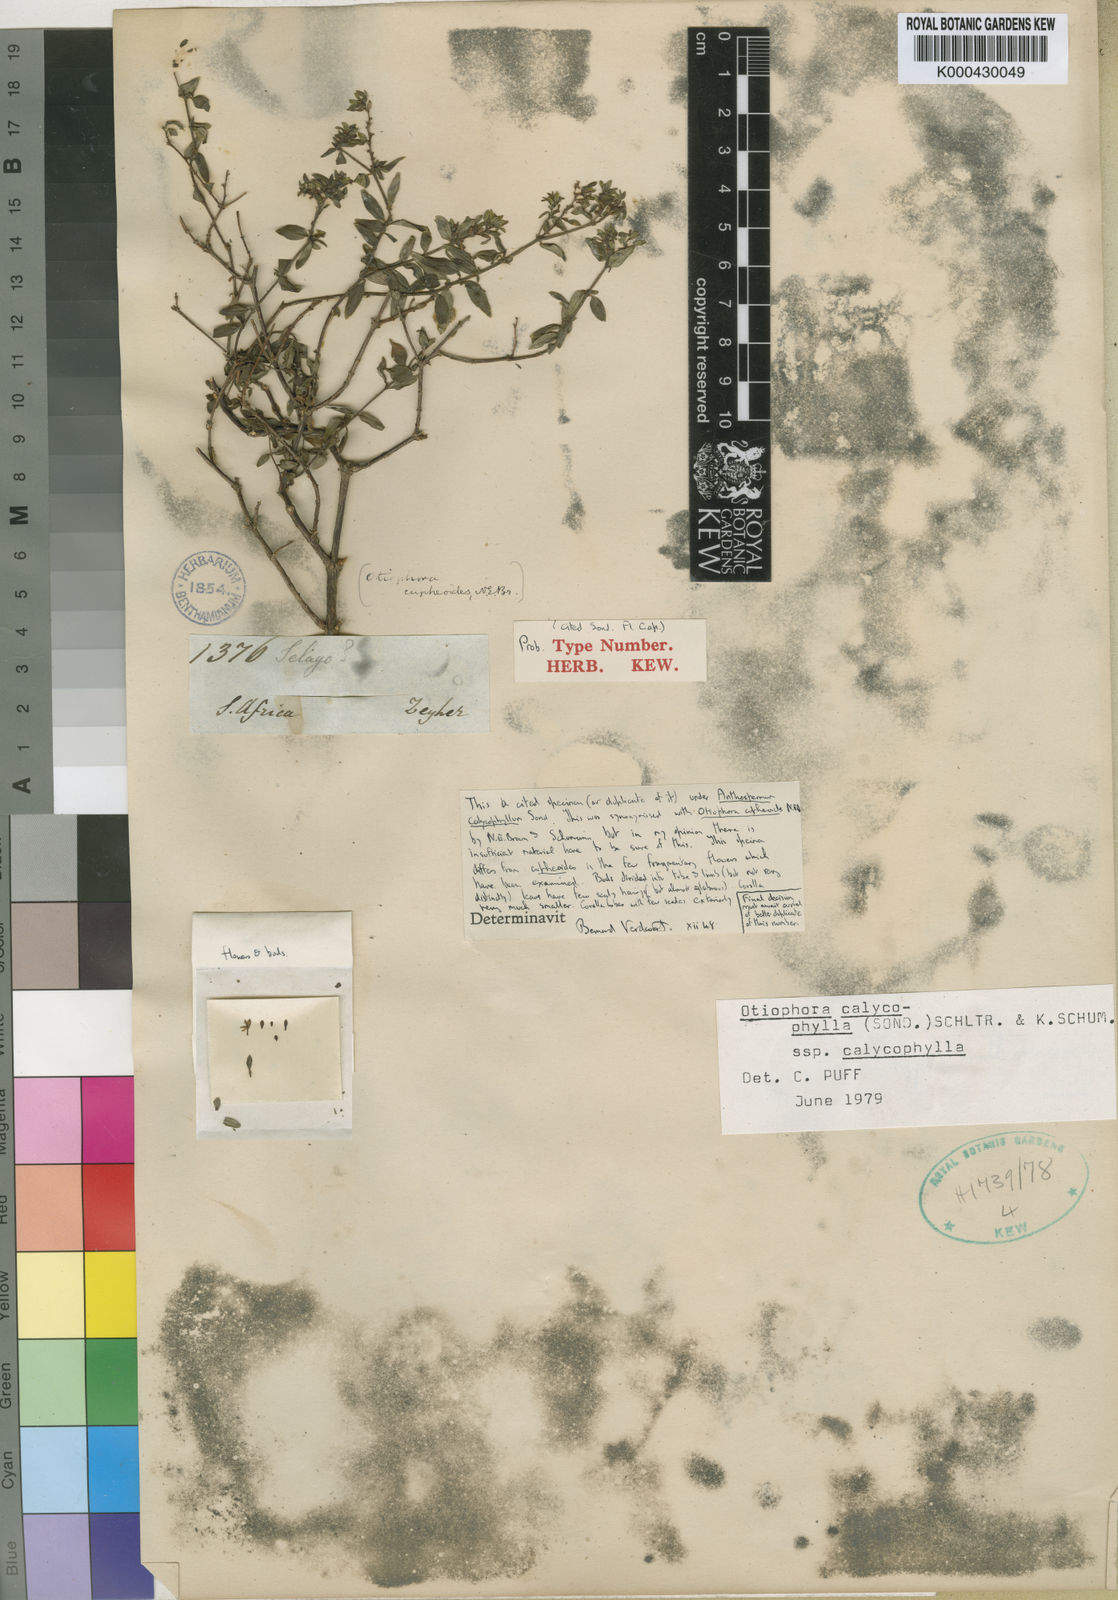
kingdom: Plantae
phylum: Tracheophyta
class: Magnoliopsida
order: Gentianales
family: Rubiaceae
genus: Otiophora
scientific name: Otiophora cupheoides
